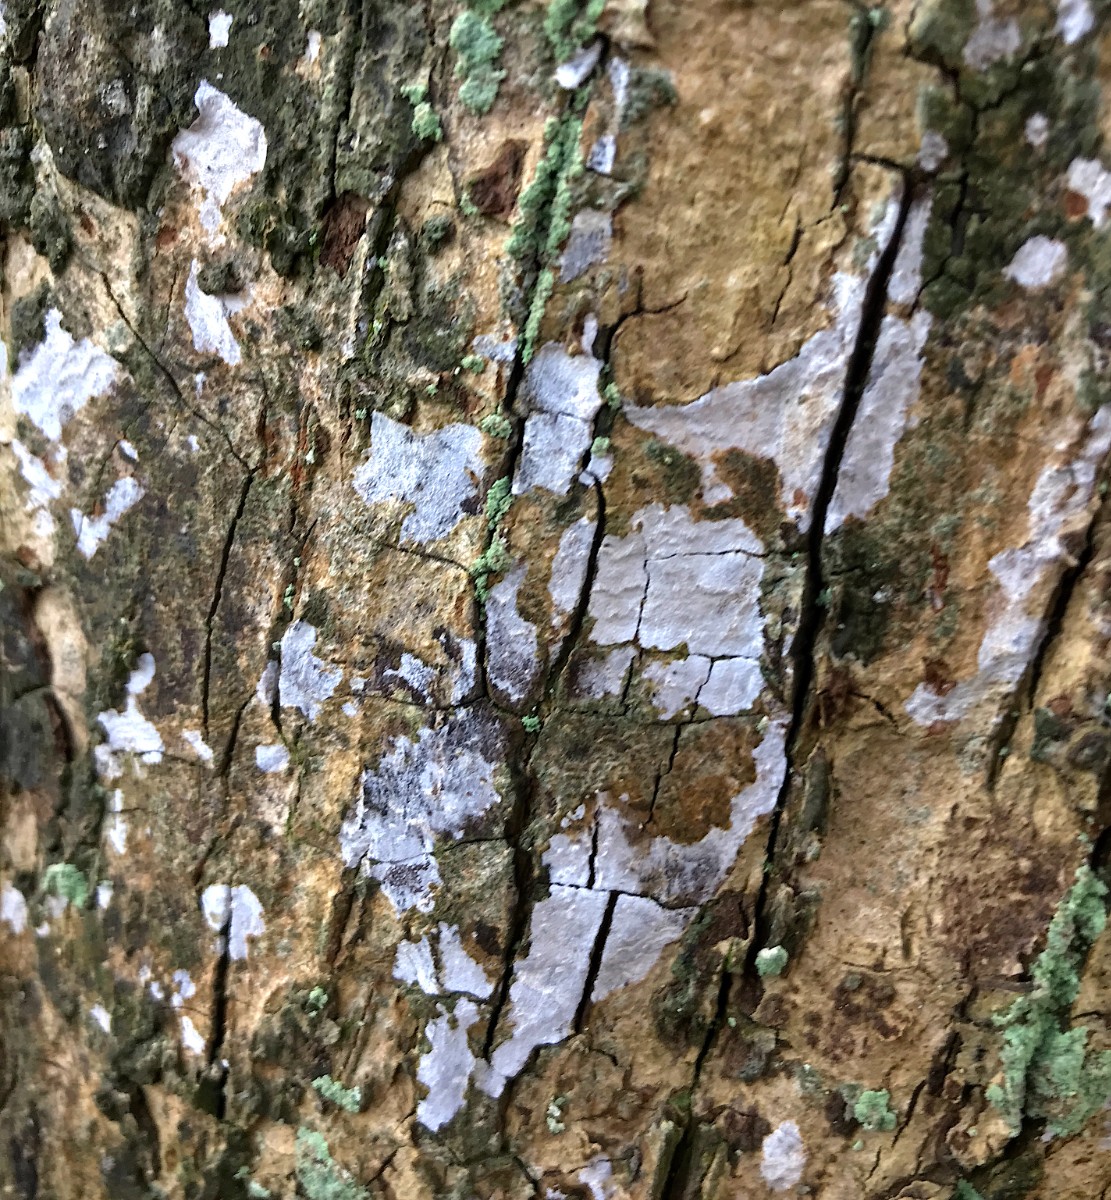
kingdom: Fungi
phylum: Basidiomycota
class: Agaricomycetes
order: Agaricales
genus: Dendrothele
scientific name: Dendrothele acerina
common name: navr-kalkplet
